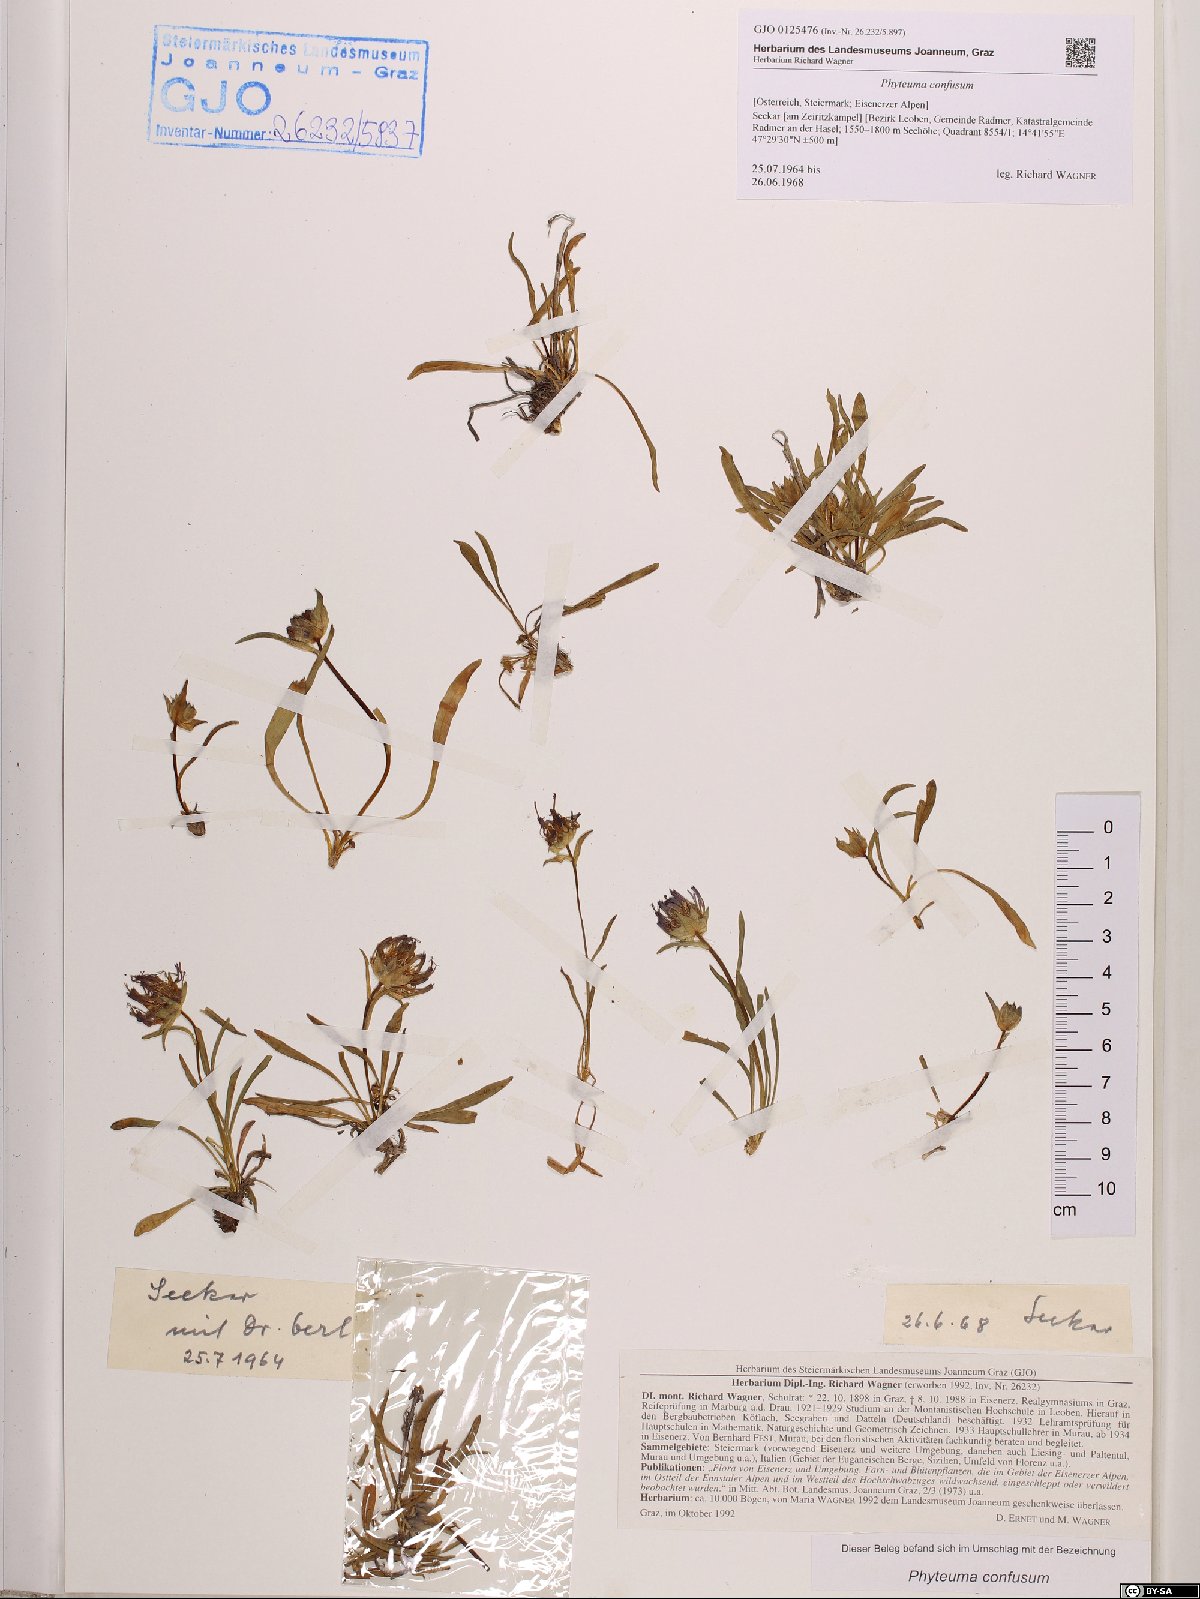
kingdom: Plantae
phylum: Tracheophyta
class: Magnoliopsida
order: Asterales
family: Campanulaceae
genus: Phyteuma
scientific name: Phyteuma confusum
